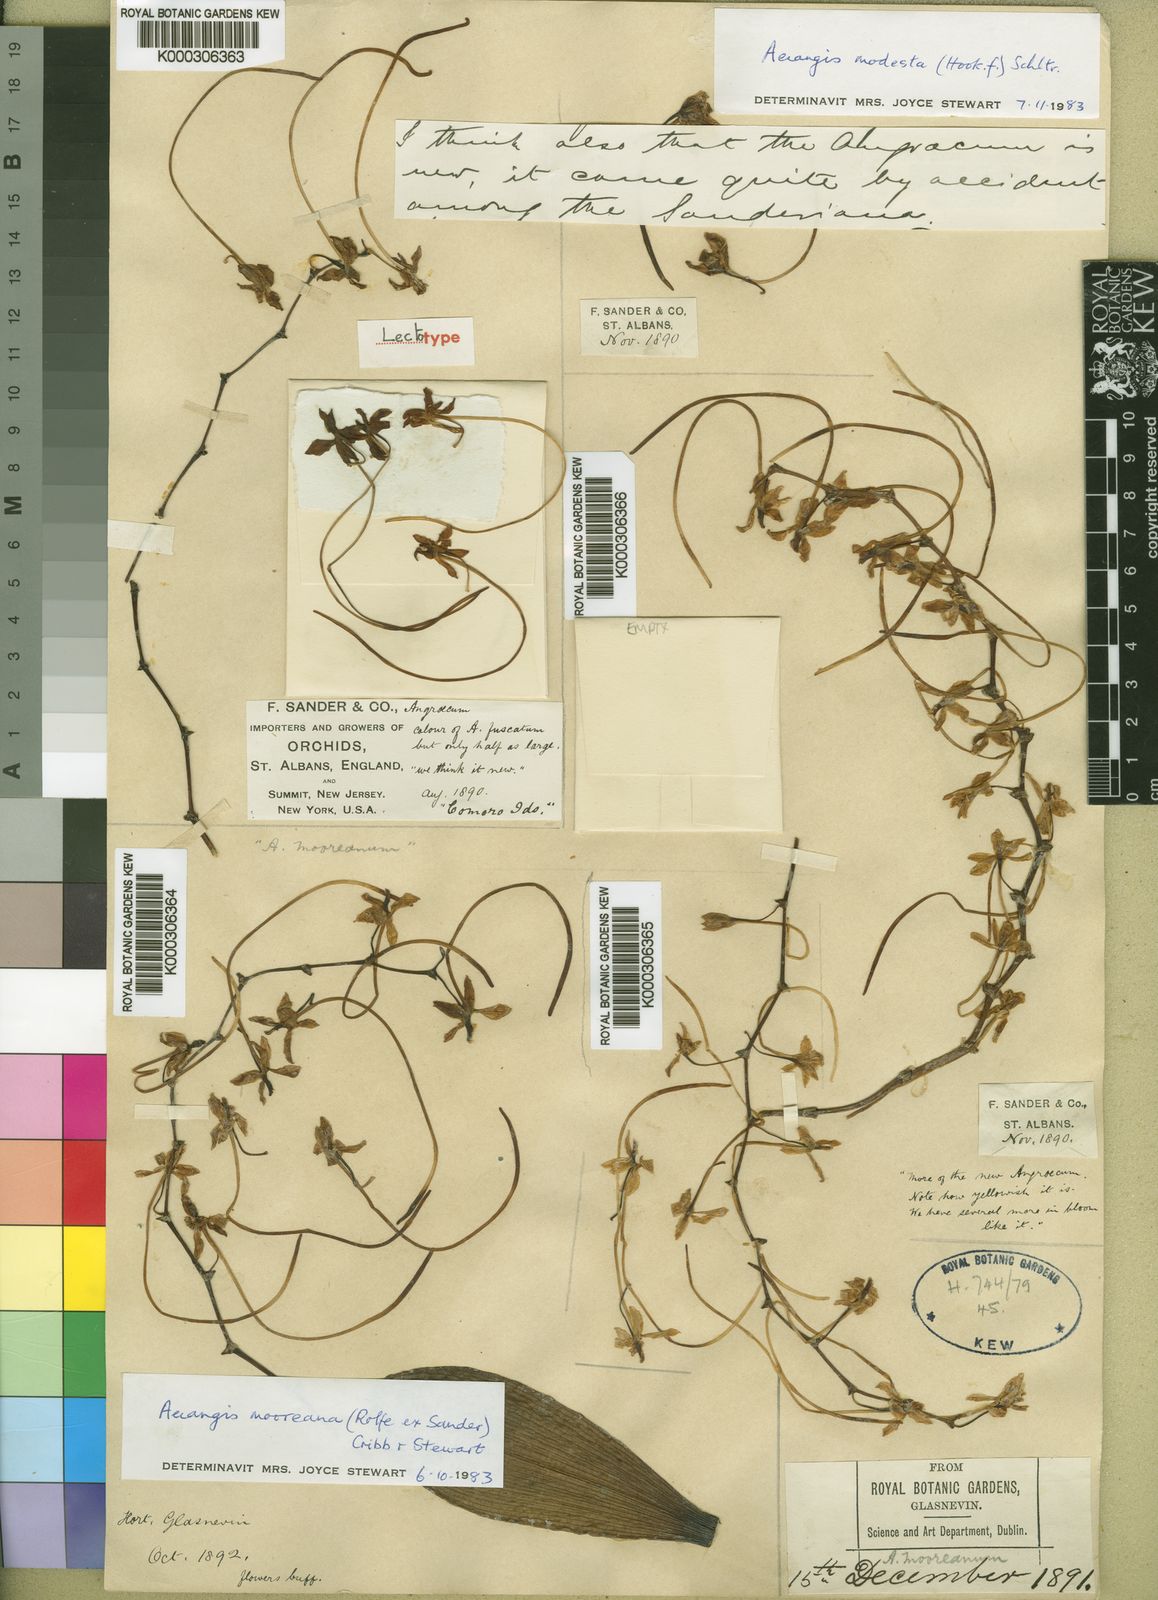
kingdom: Plantae
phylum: Tracheophyta
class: Liliopsida
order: Asparagales
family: Orchidaceae
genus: Aerangis
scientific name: Aerangis mooreana
